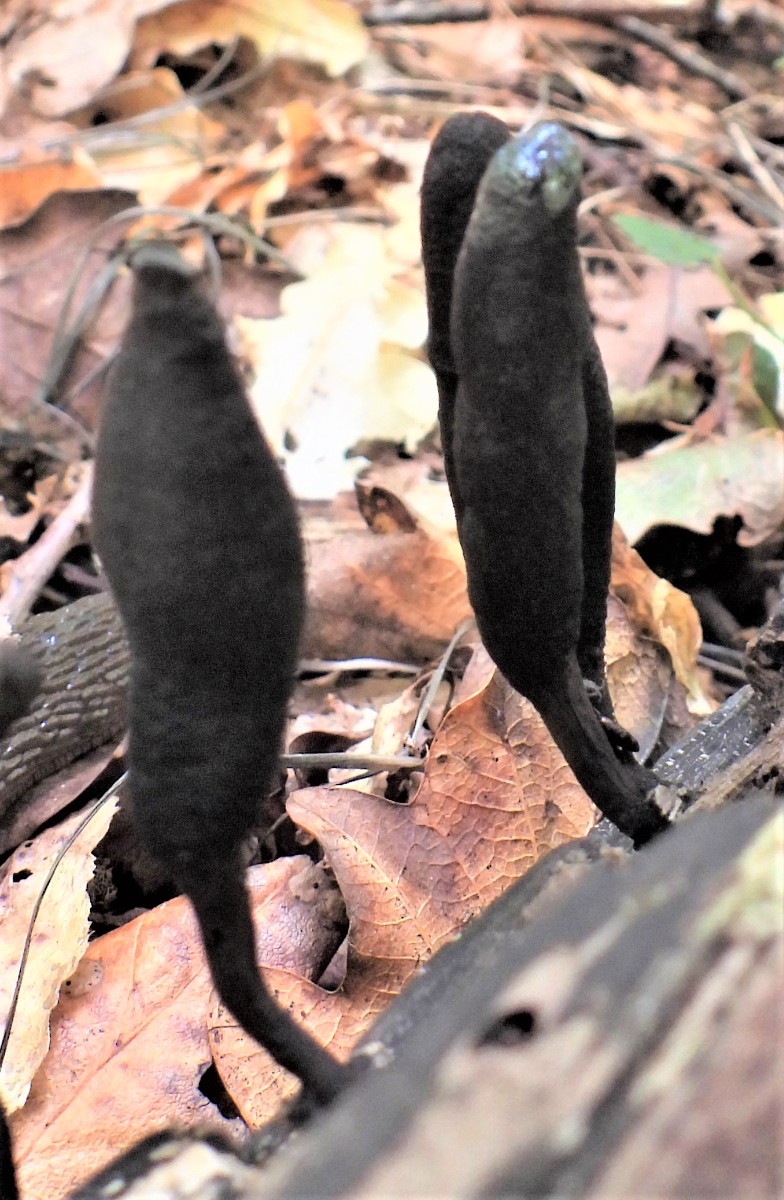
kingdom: Fungi
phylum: Ascomycota
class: Sordariomycetes
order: Xylariales
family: Xylariaceae
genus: Xylaria
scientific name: Xylaria longipes
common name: slank stødsvamp
